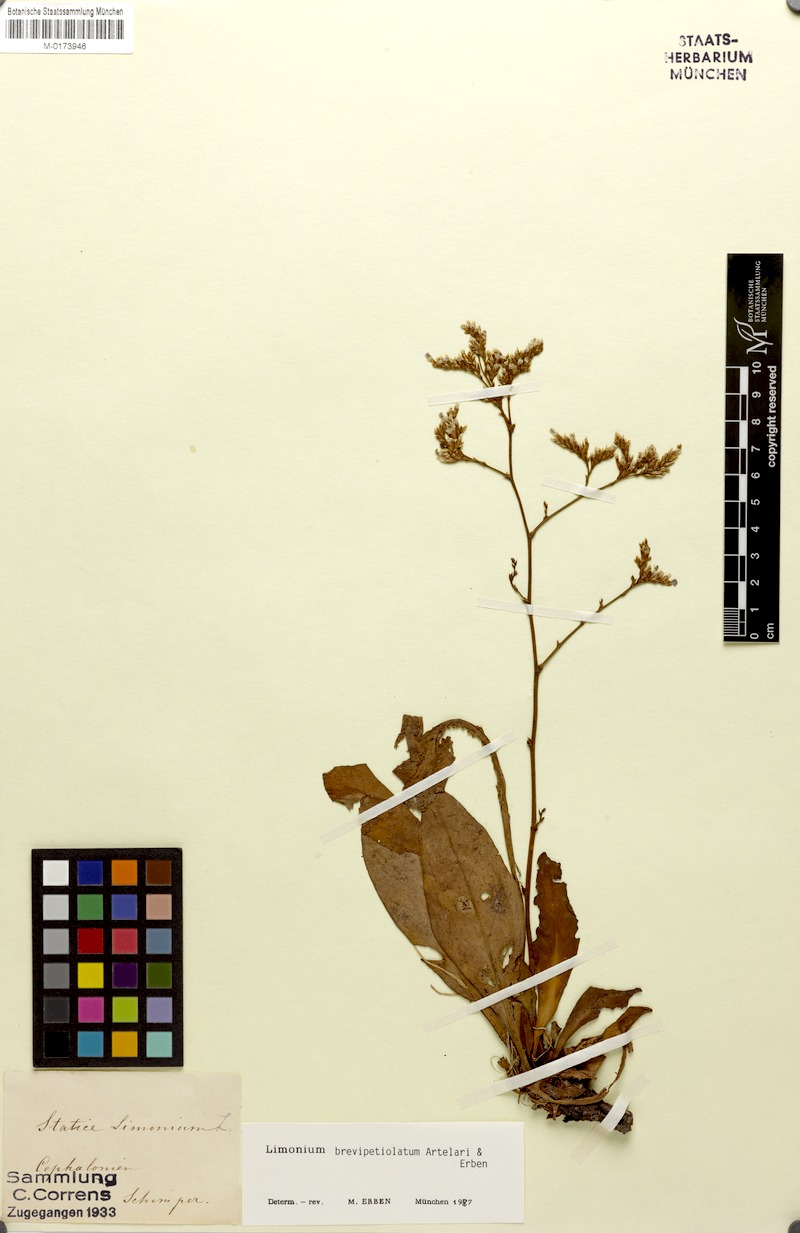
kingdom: Plantae
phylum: Tracheophyta
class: Magnoliopsida
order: Caryophyllales
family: Plumbaginaceae
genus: Limonium
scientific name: Limonium brevipetiolatum
